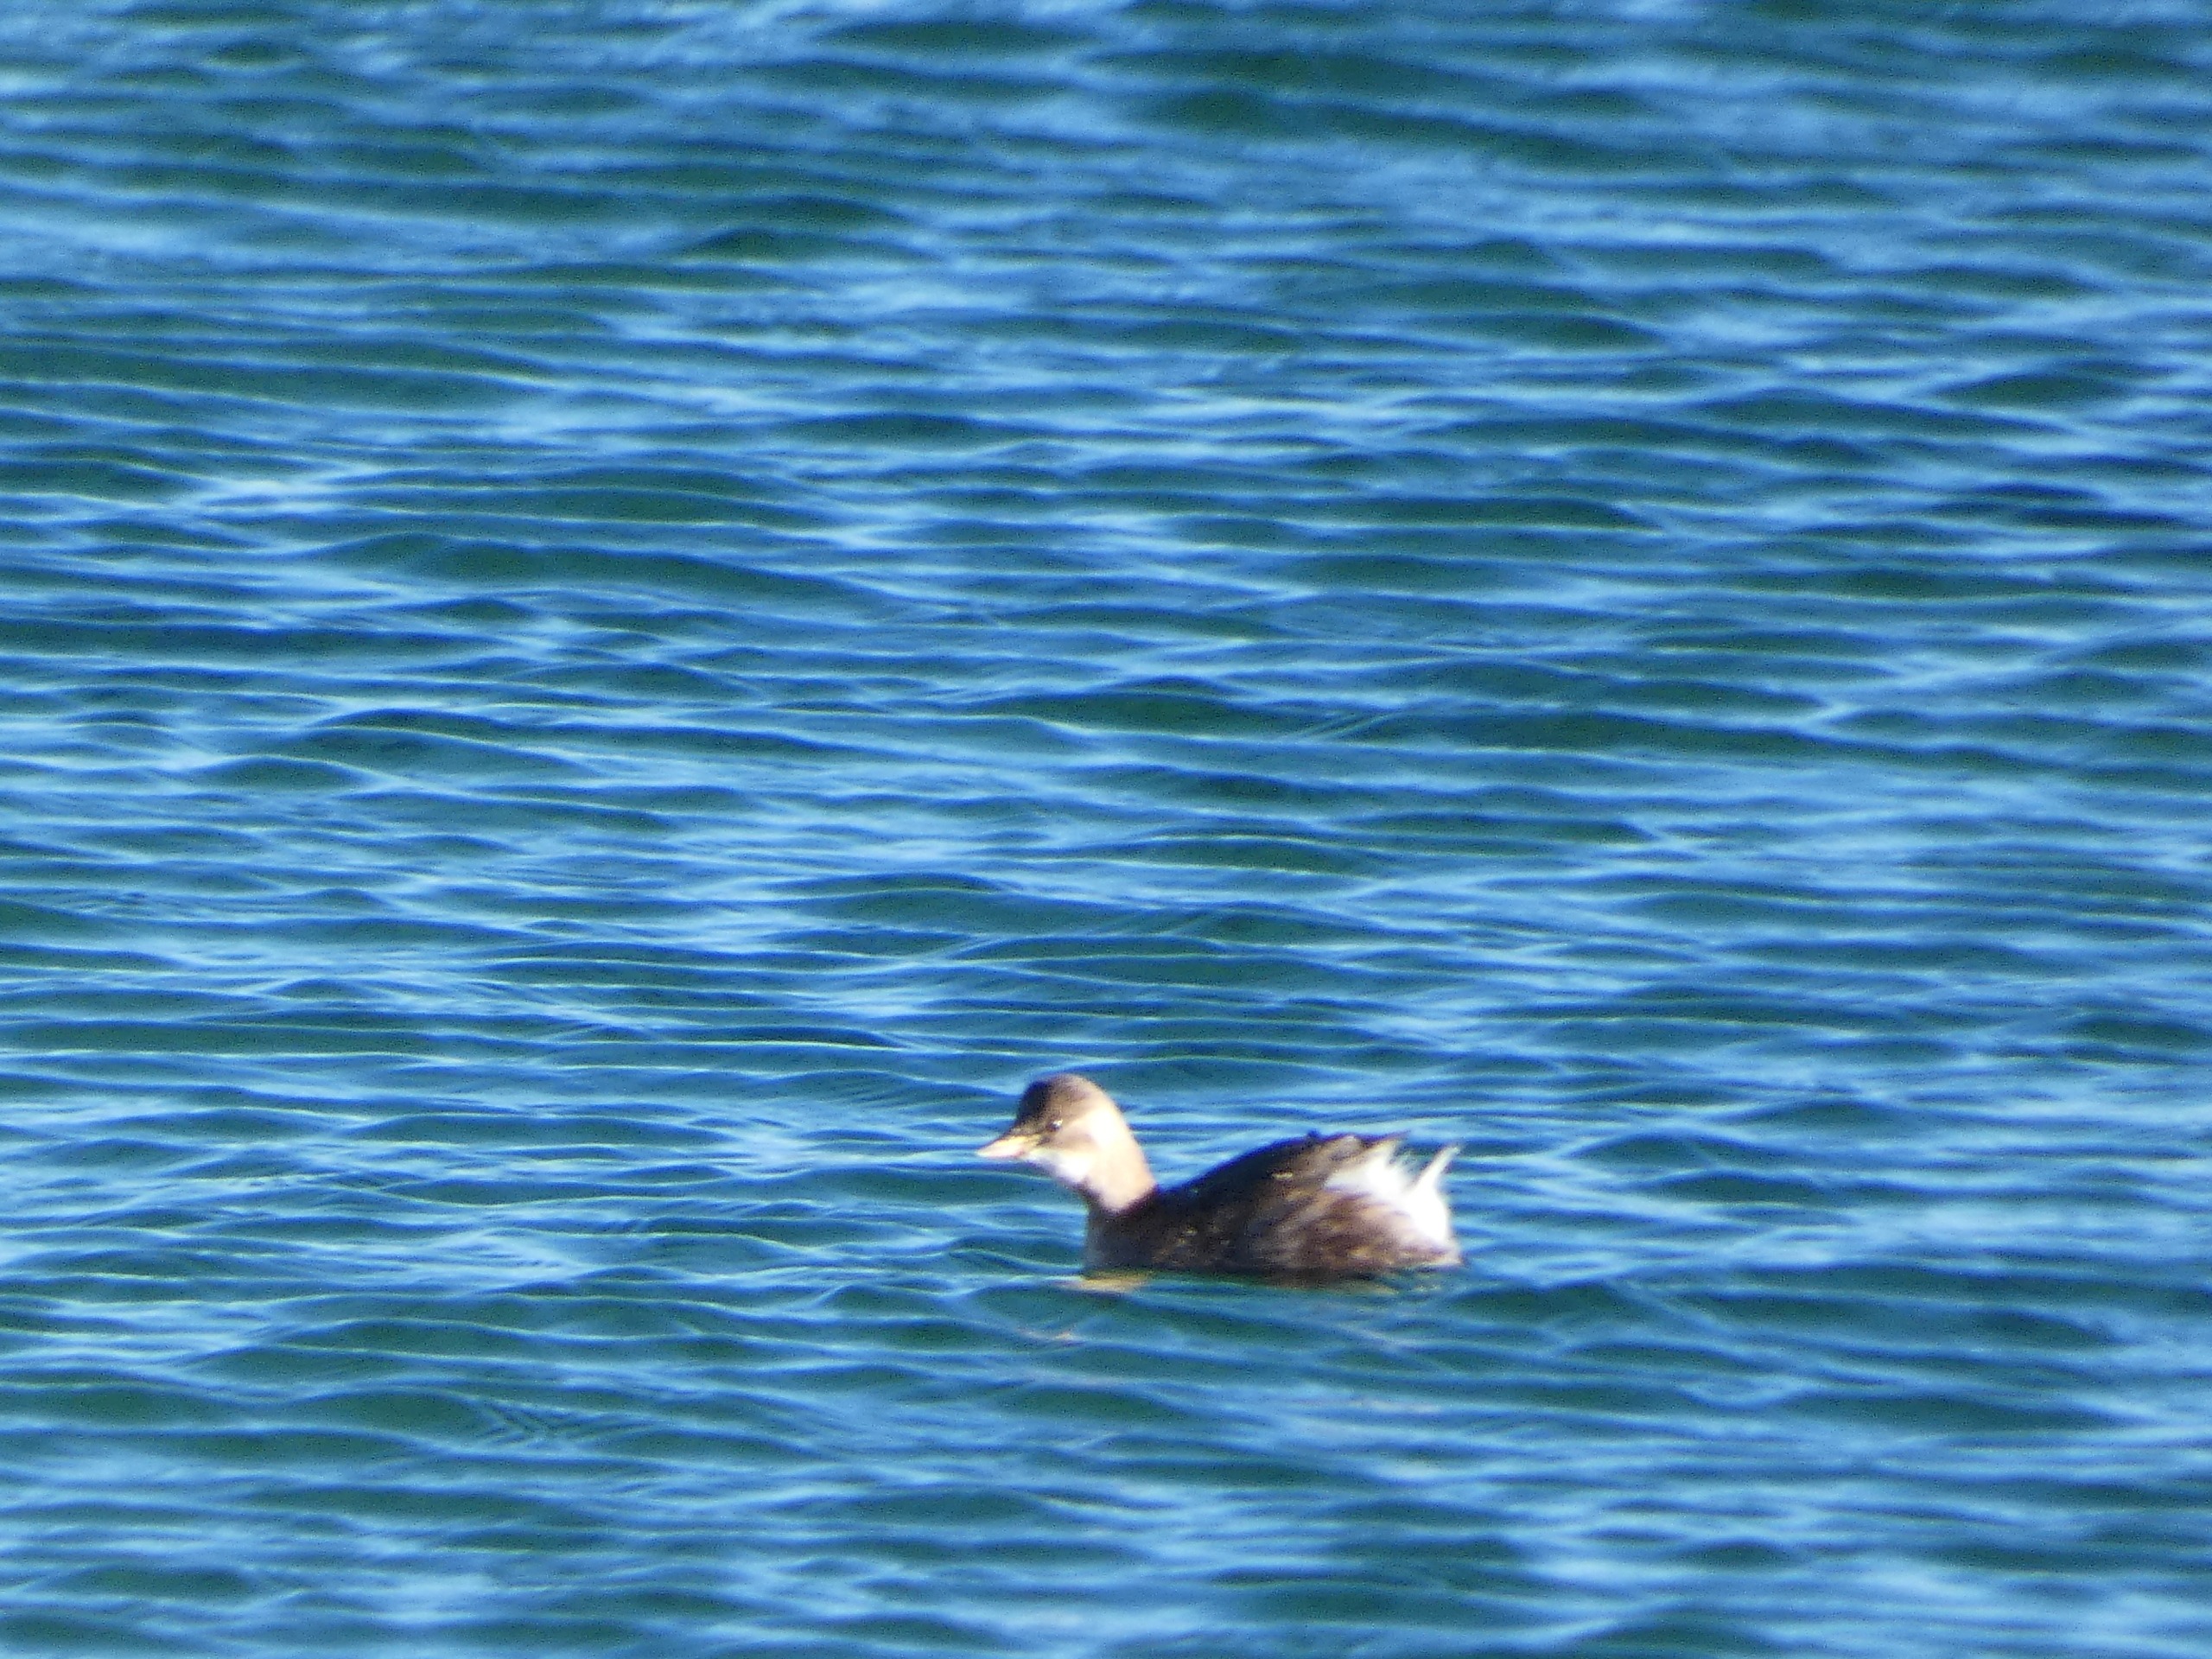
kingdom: Animalia
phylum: Chordata
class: Aves
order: Podicipediformes
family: Podicipedidae
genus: Tachybaptus
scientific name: Tachybaptus ruficollis
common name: Lille lappedykker
